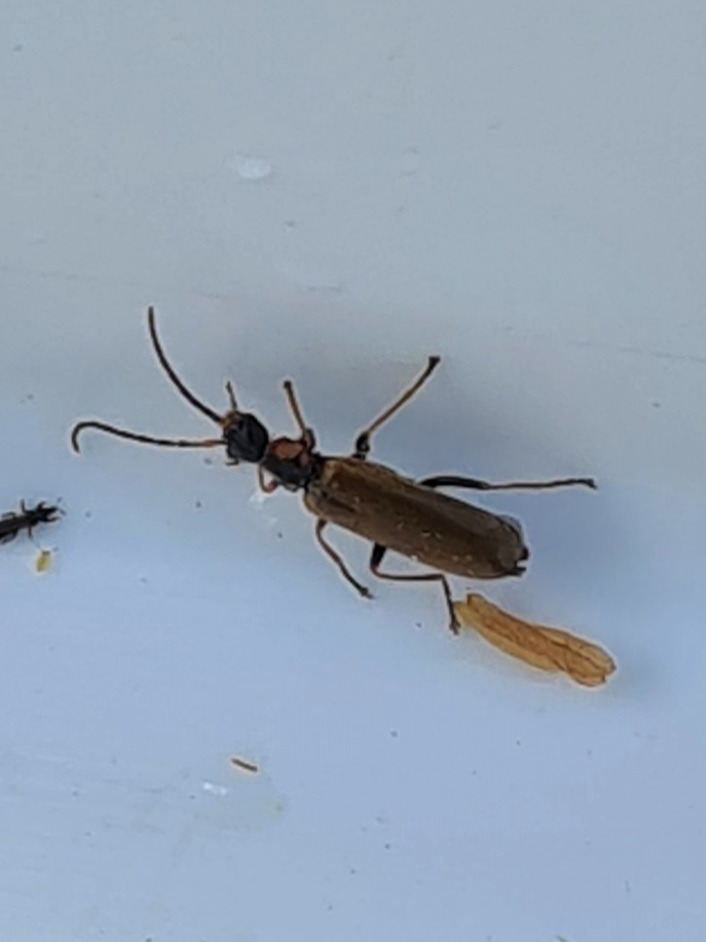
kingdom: Animalia
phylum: Arthropoda
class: Insecta
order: Coleoptera
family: Cantharidae
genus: Rhagonycha
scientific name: Rhagonycha nigriventris
